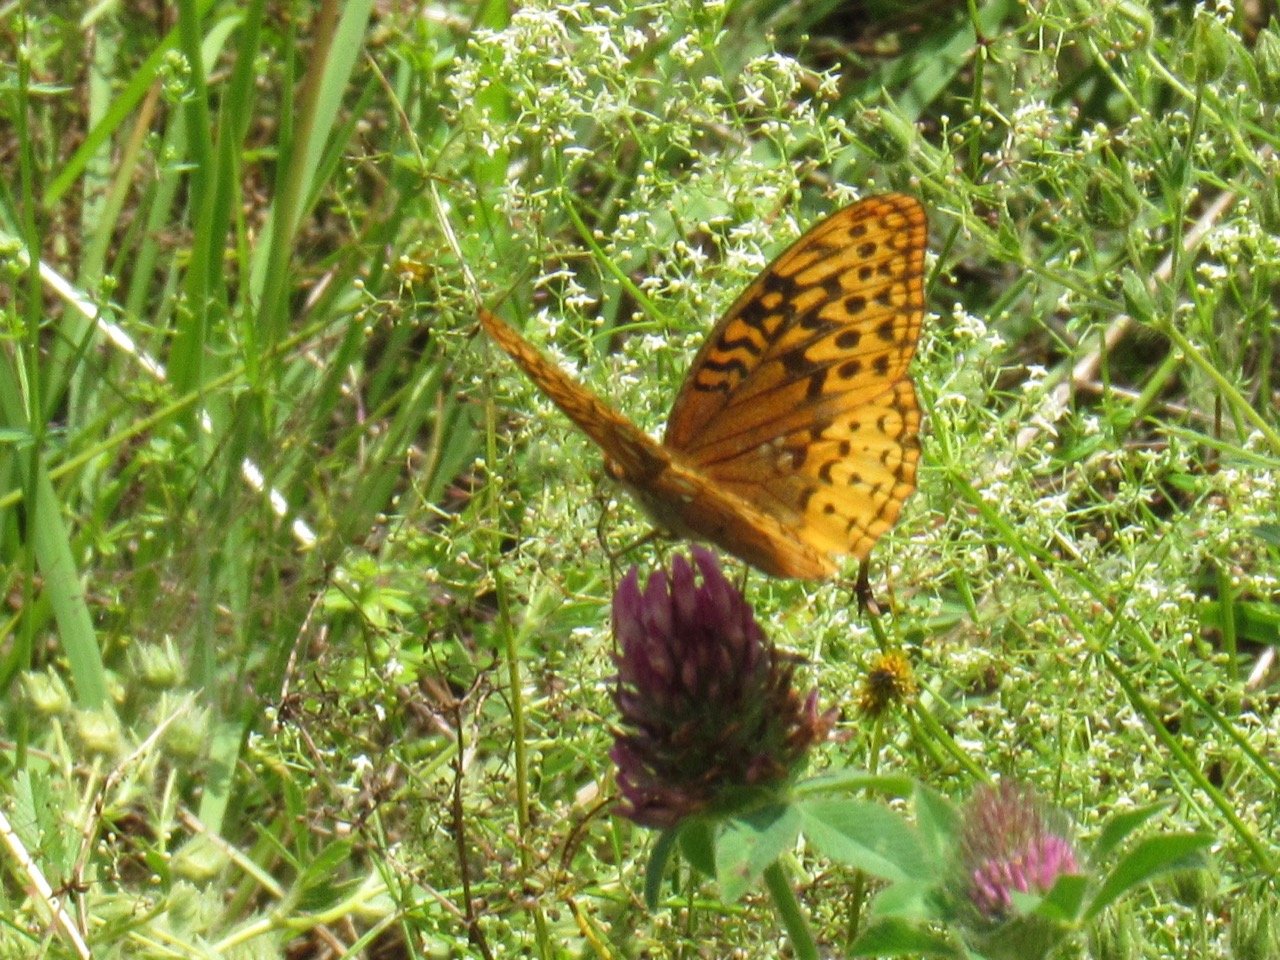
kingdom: Animalia
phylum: Arthropoda
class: Insecta
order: Lepidoptera
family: Nymphalidae
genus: Speyeria
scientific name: Speyeria cybele
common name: Great Spangled Fritillary
